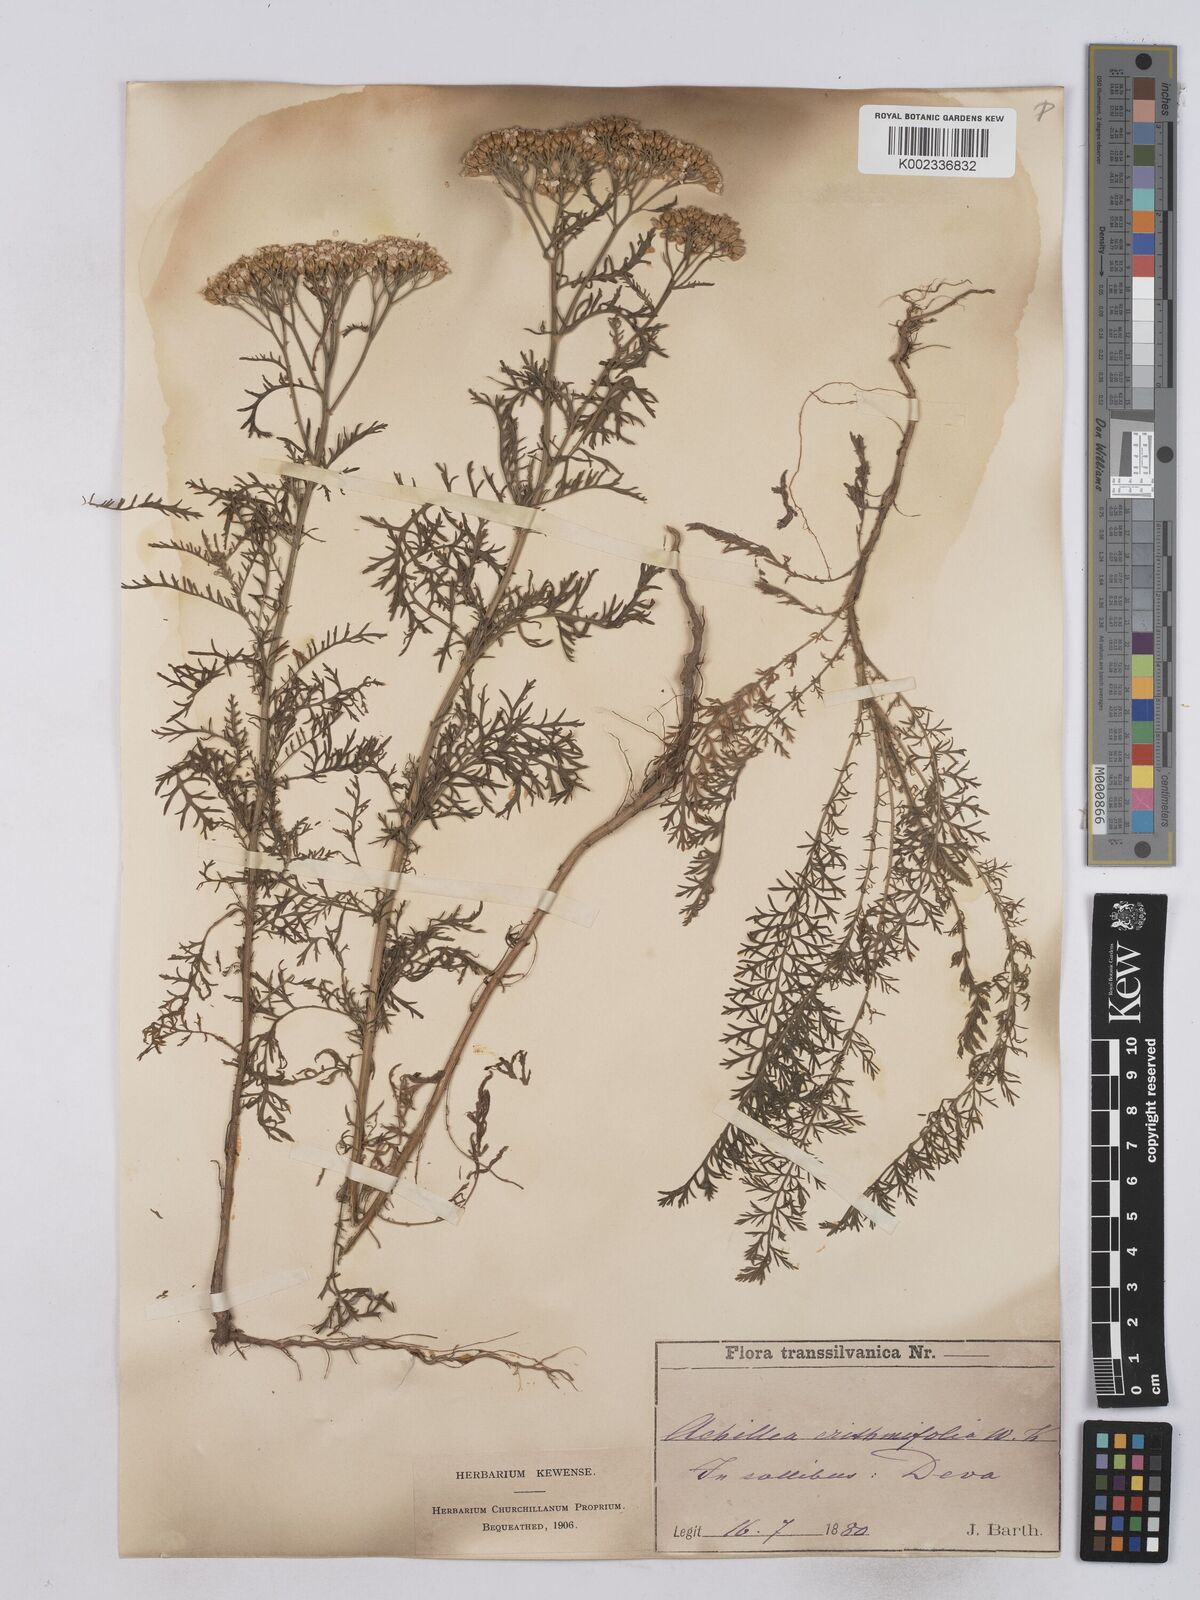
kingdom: Plantae
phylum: Tracheophyta
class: Magnoliopsida
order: Asterales
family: Asteraceae
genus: Achillea
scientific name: Achillea crithmifolia
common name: Yarrow
